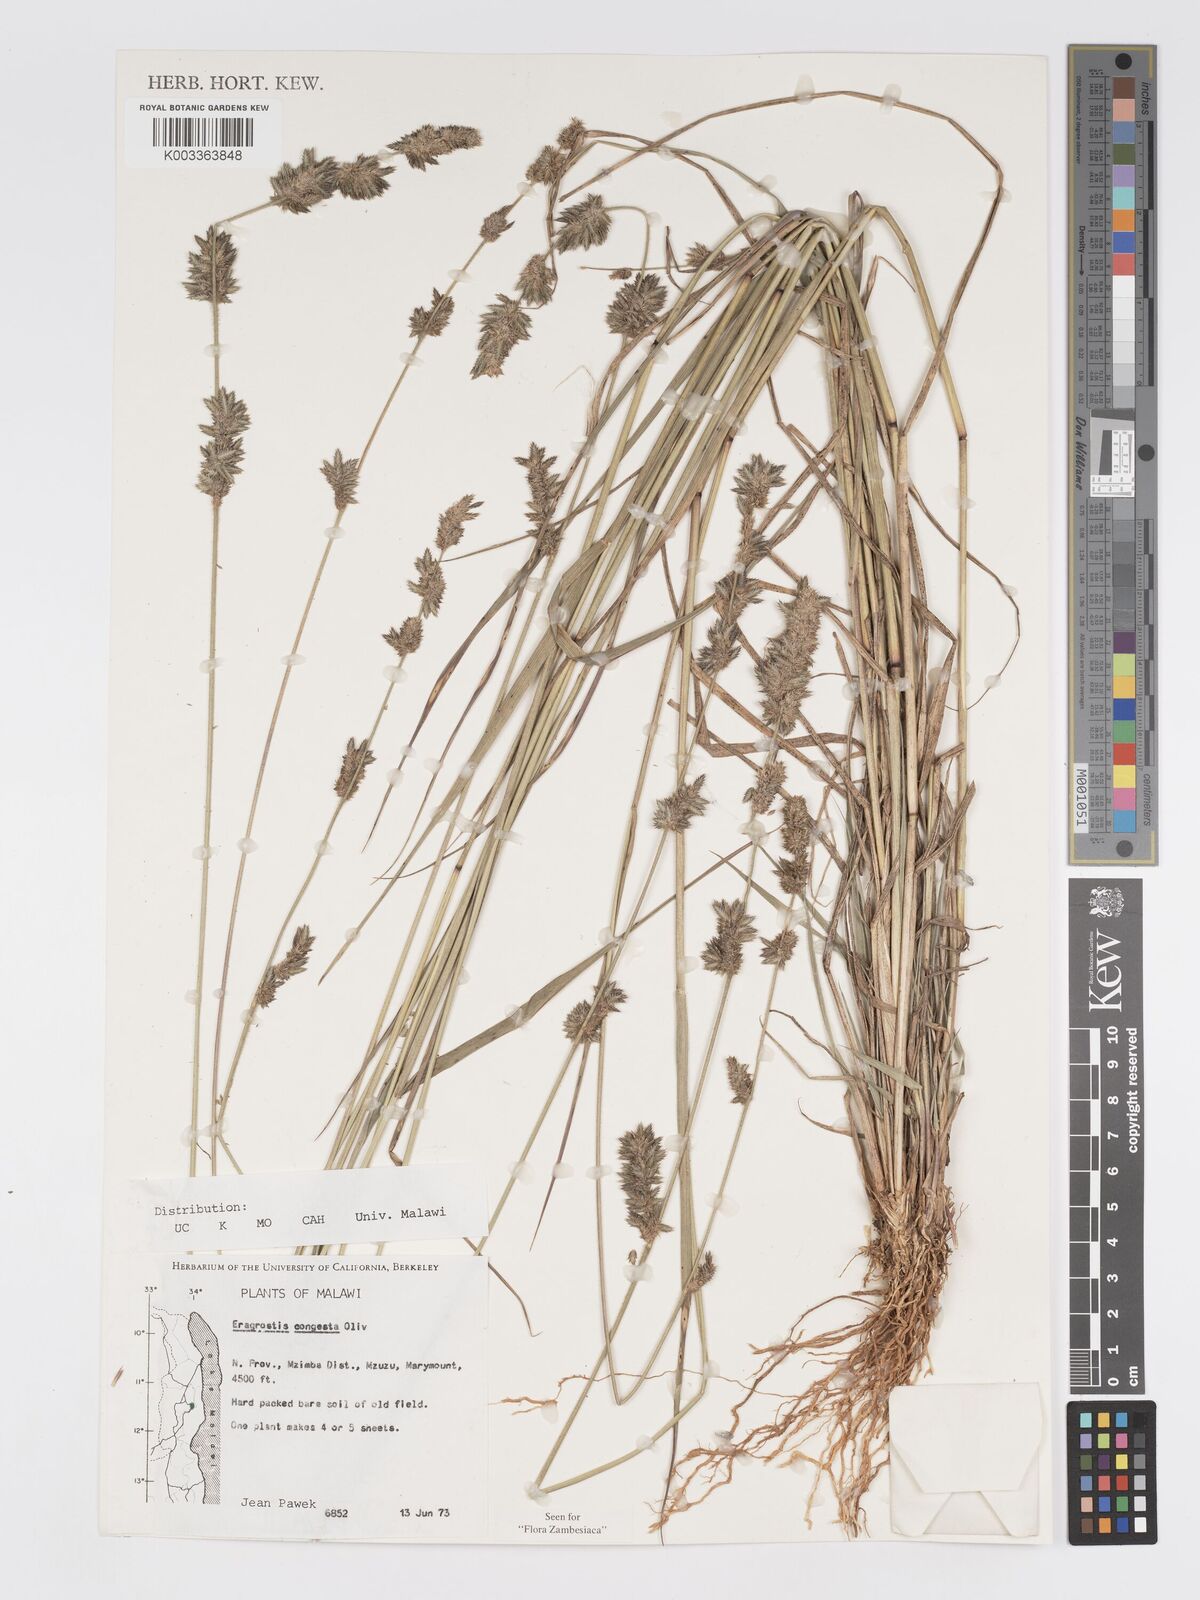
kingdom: Plantae
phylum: Tracheophyta
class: Liliopsida
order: Poales
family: Poaceae
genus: Eragrostis
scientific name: Eragrostis congesta
